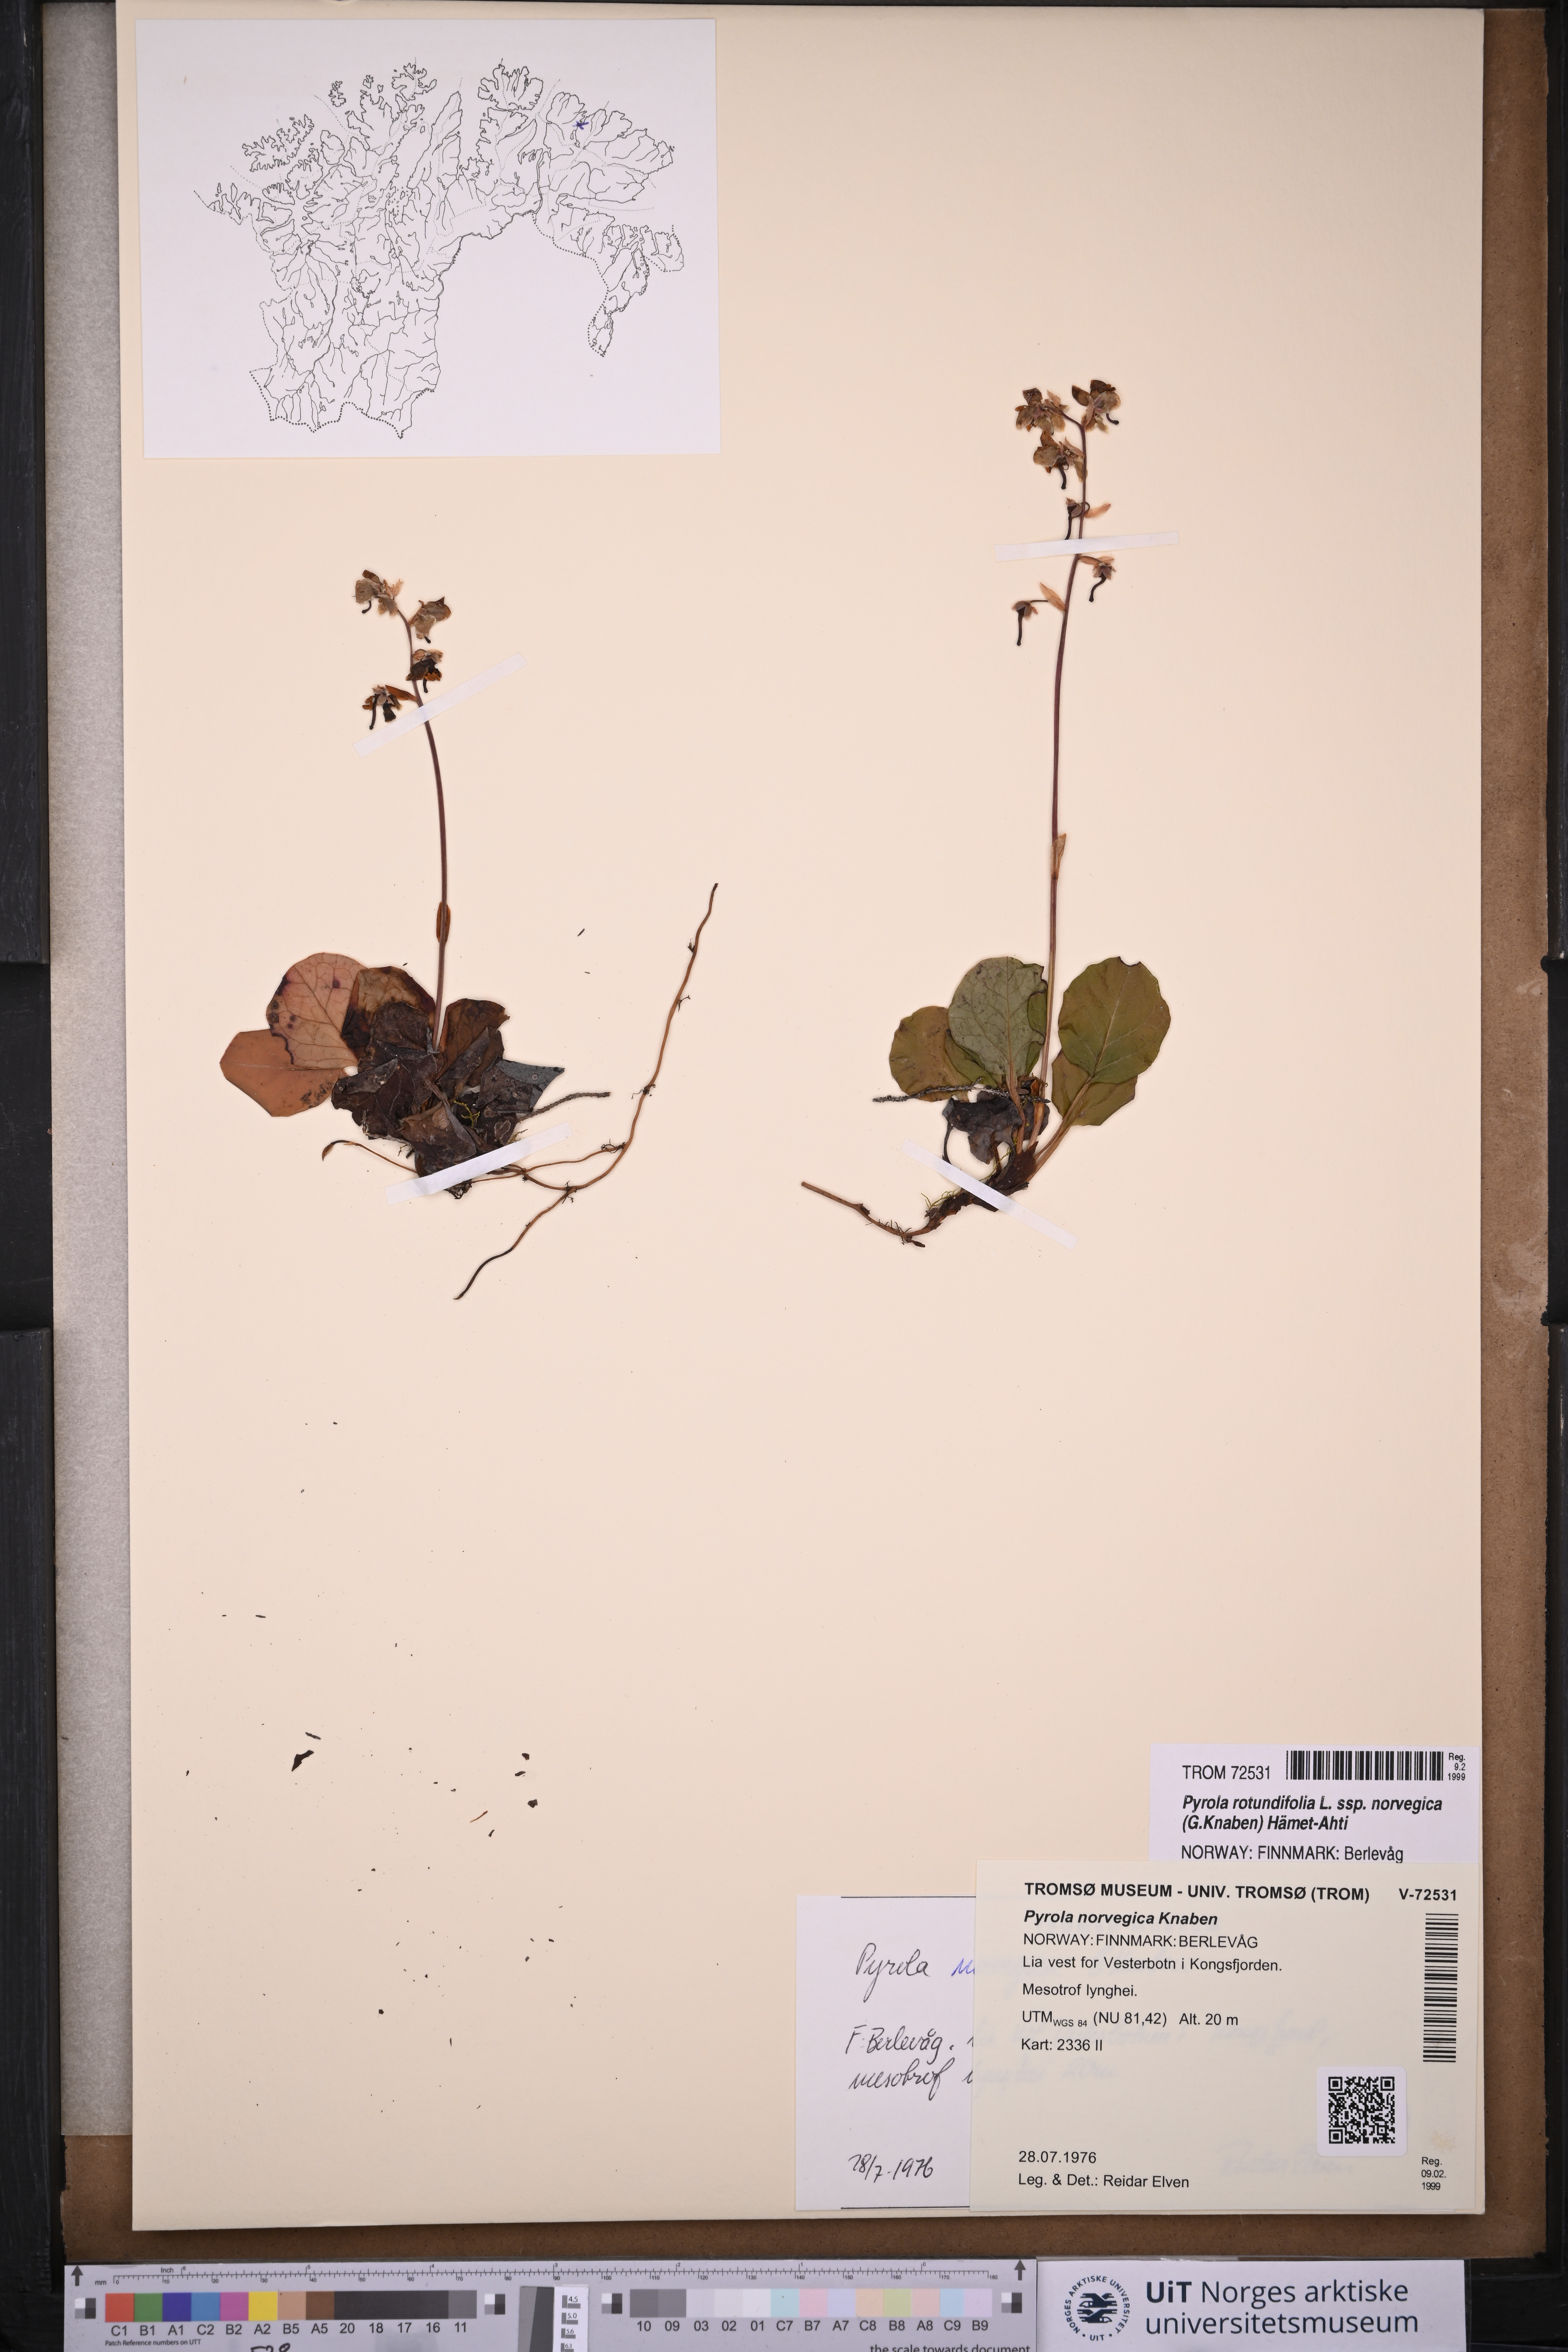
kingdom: Plantae
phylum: Tracheophyta
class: Magnoliopsida
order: Ericales
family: Ericaceae
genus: Pyrola
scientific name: Pyrola rotundifolia
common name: Round-leaved wintergreen
